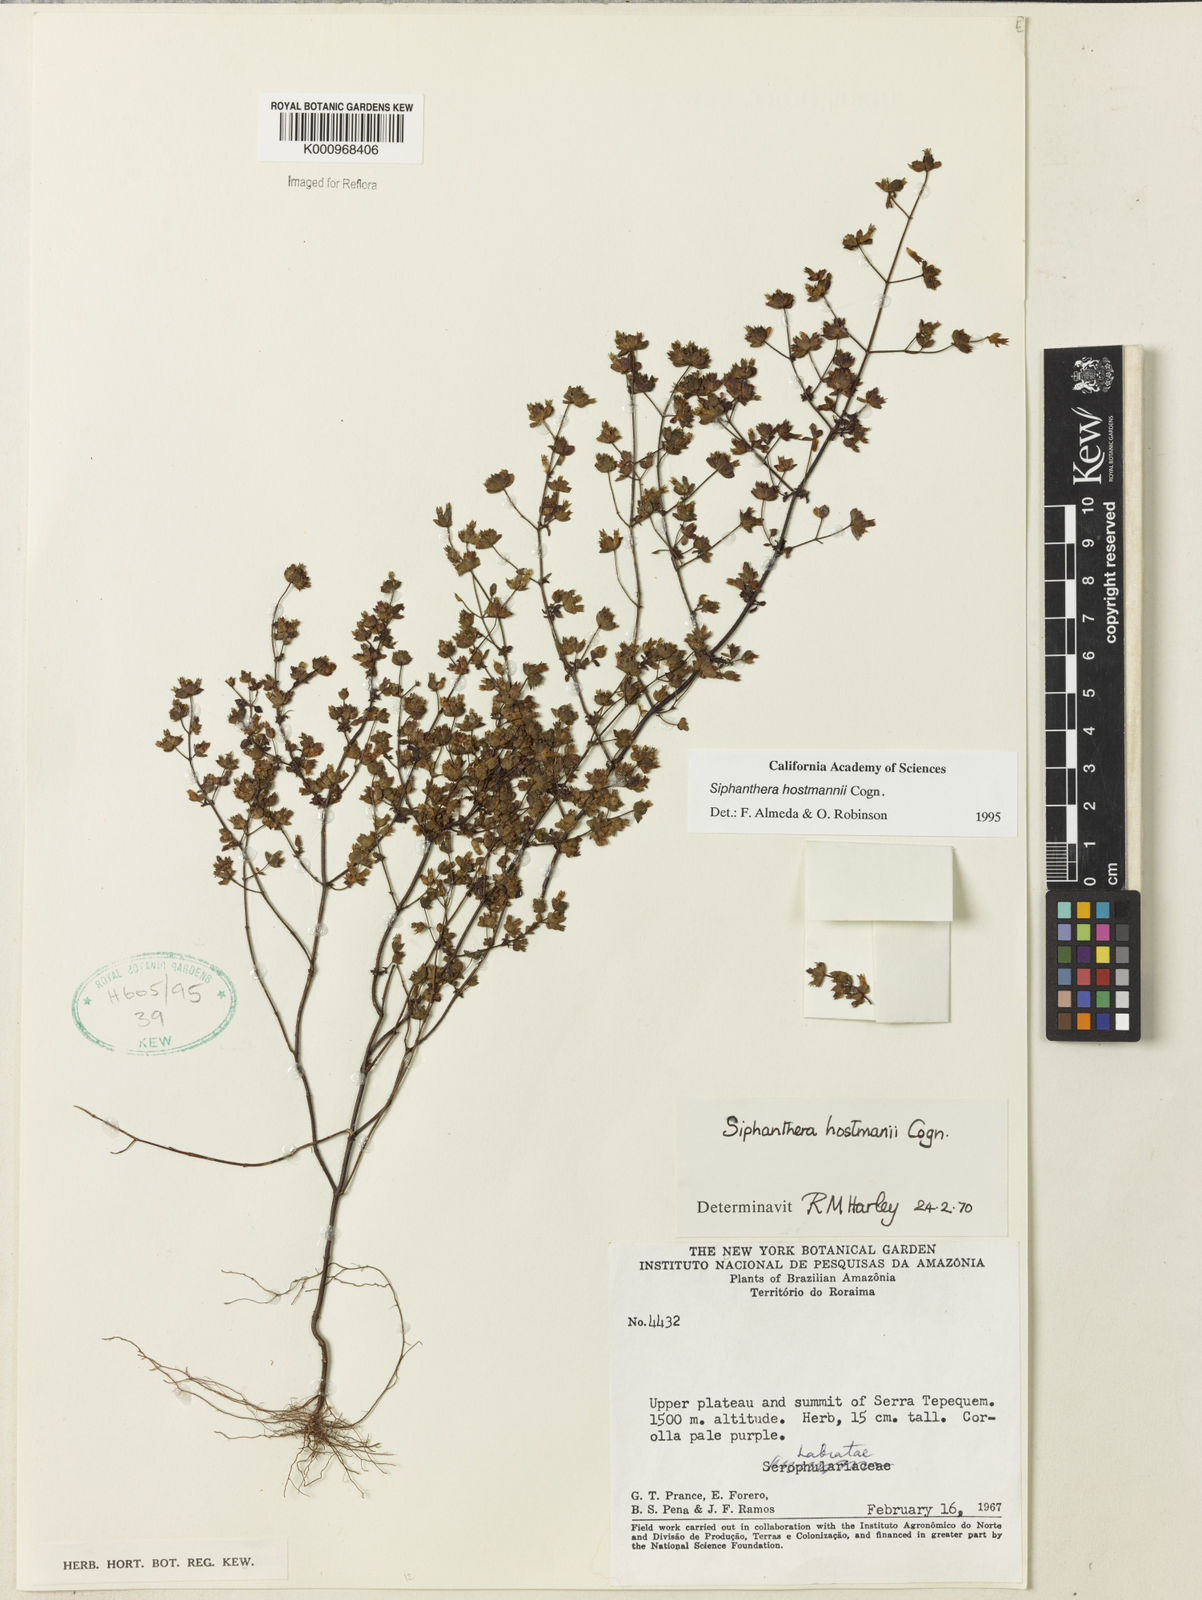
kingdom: Plantae
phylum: Tracheophyta
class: Magnoliopsida
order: Myrtales
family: Melastomataceae
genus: Siphanthera
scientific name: Siphanthera hostmannii
